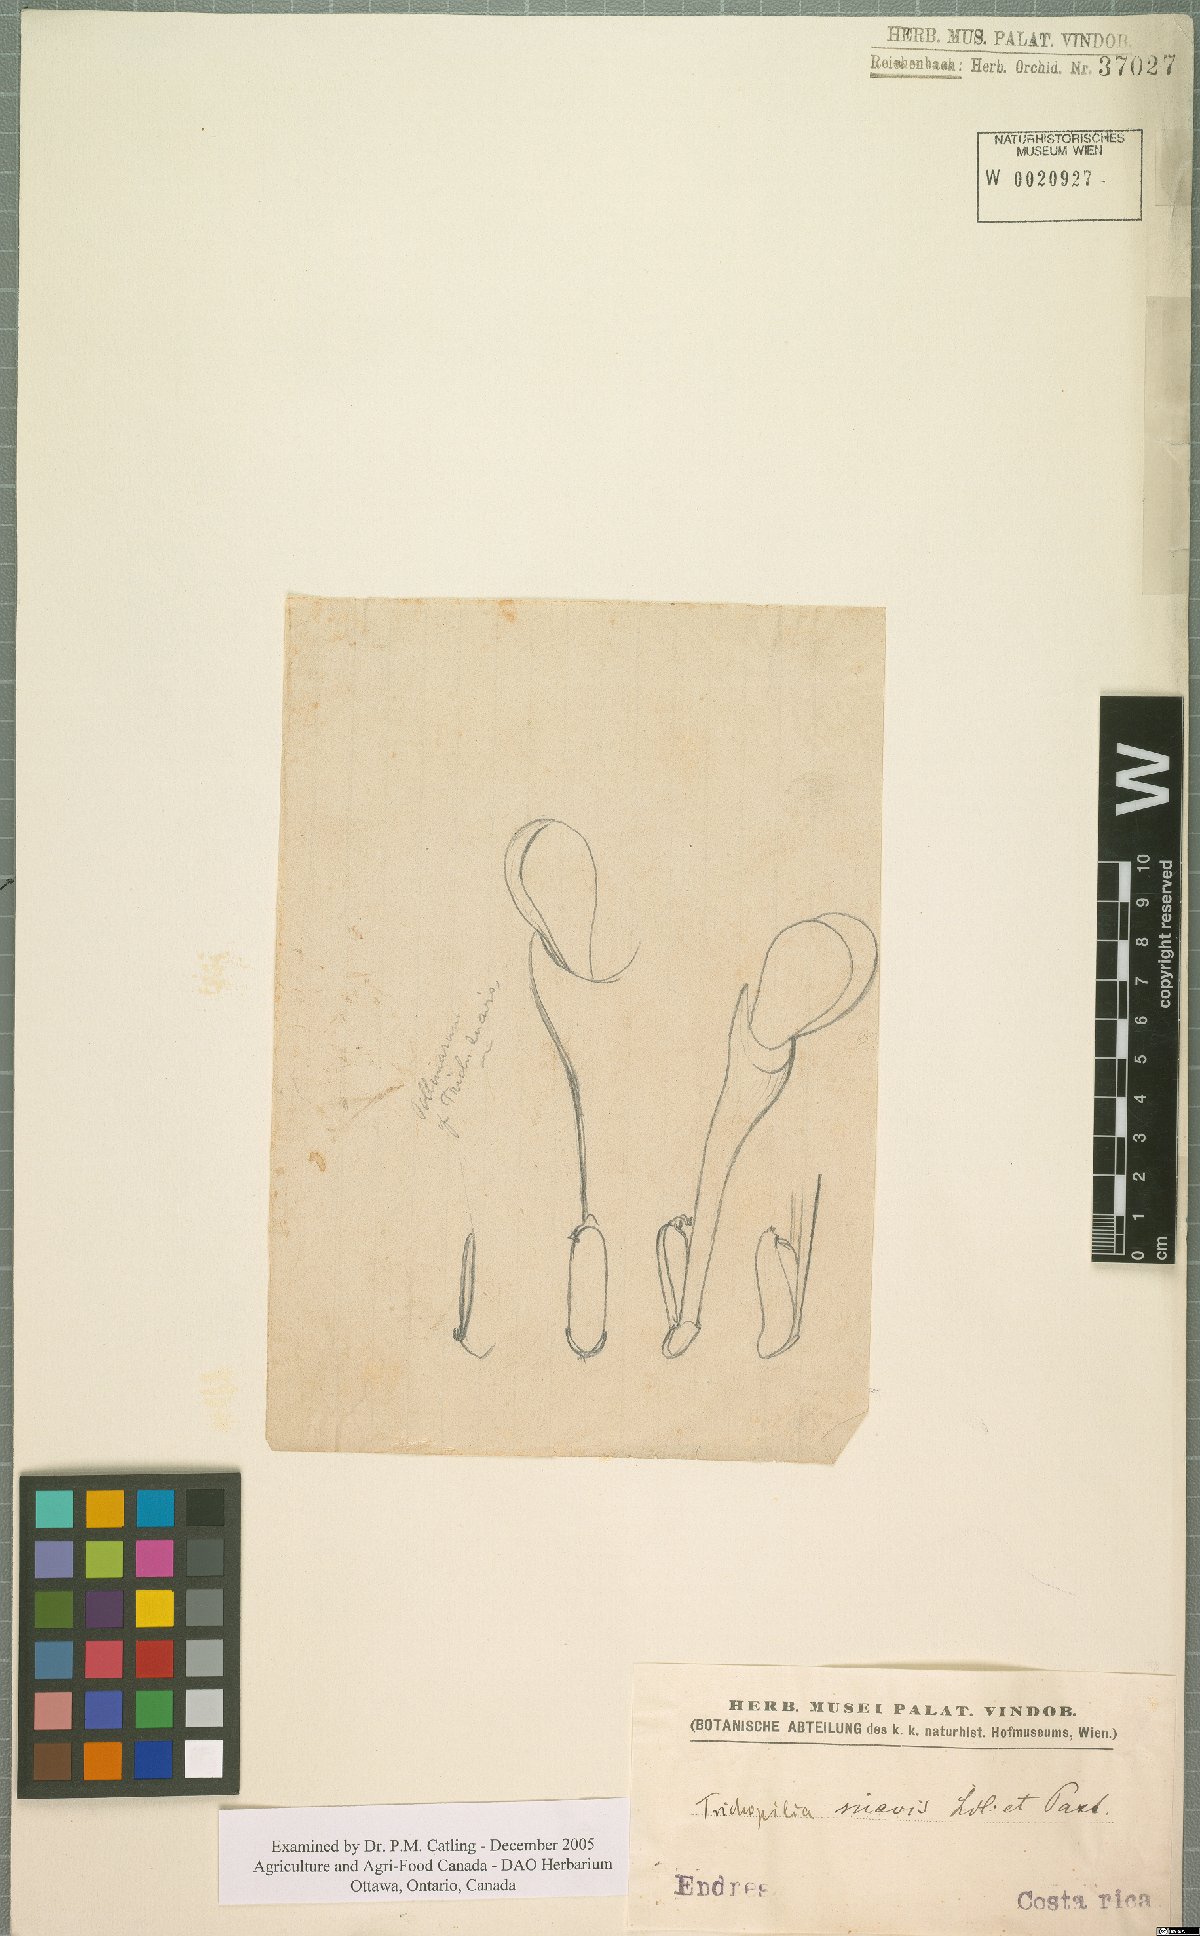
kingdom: Plantae
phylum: Tracheophyta
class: Liliopsida
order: Asparagales
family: Orchidaceae
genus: Trichopilia
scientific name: Trichopilia suavis
